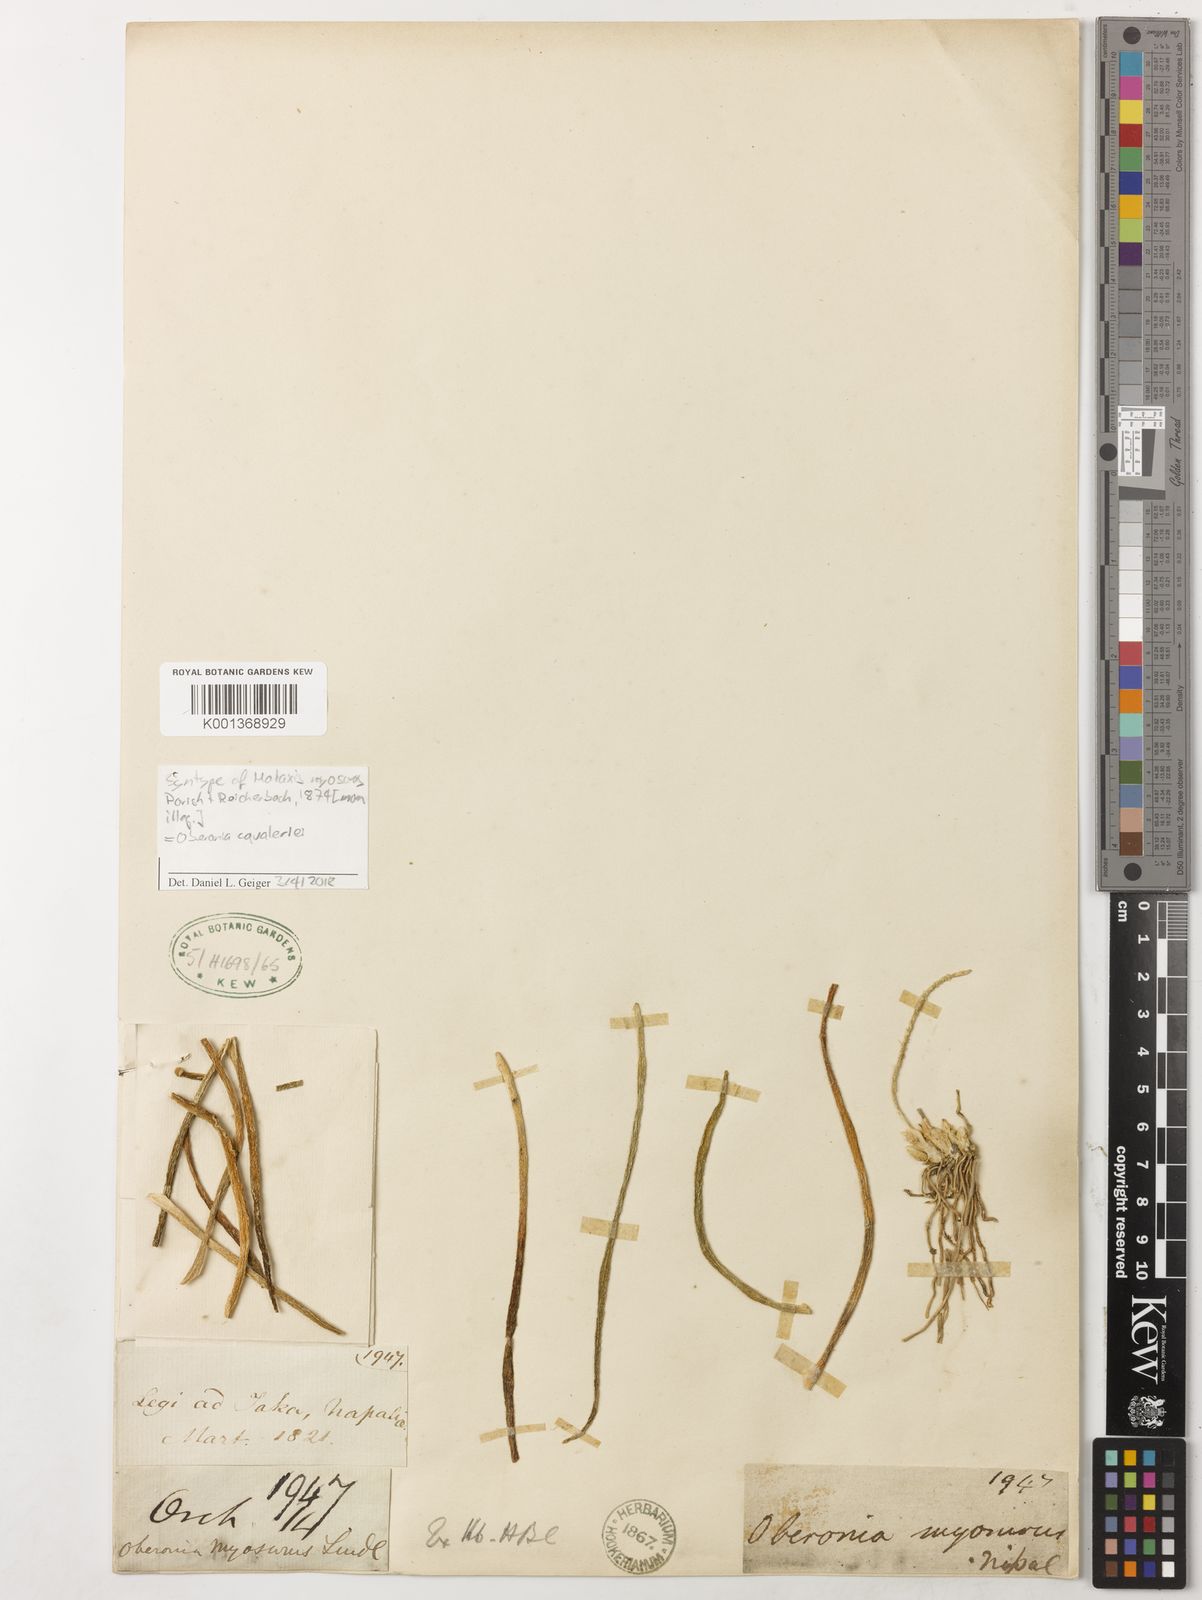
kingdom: Plantae
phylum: Tracheophyta
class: Liliopsida
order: Asparagales
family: Orchidaceae
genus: Oberonia
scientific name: Oberonia cavaleriei
